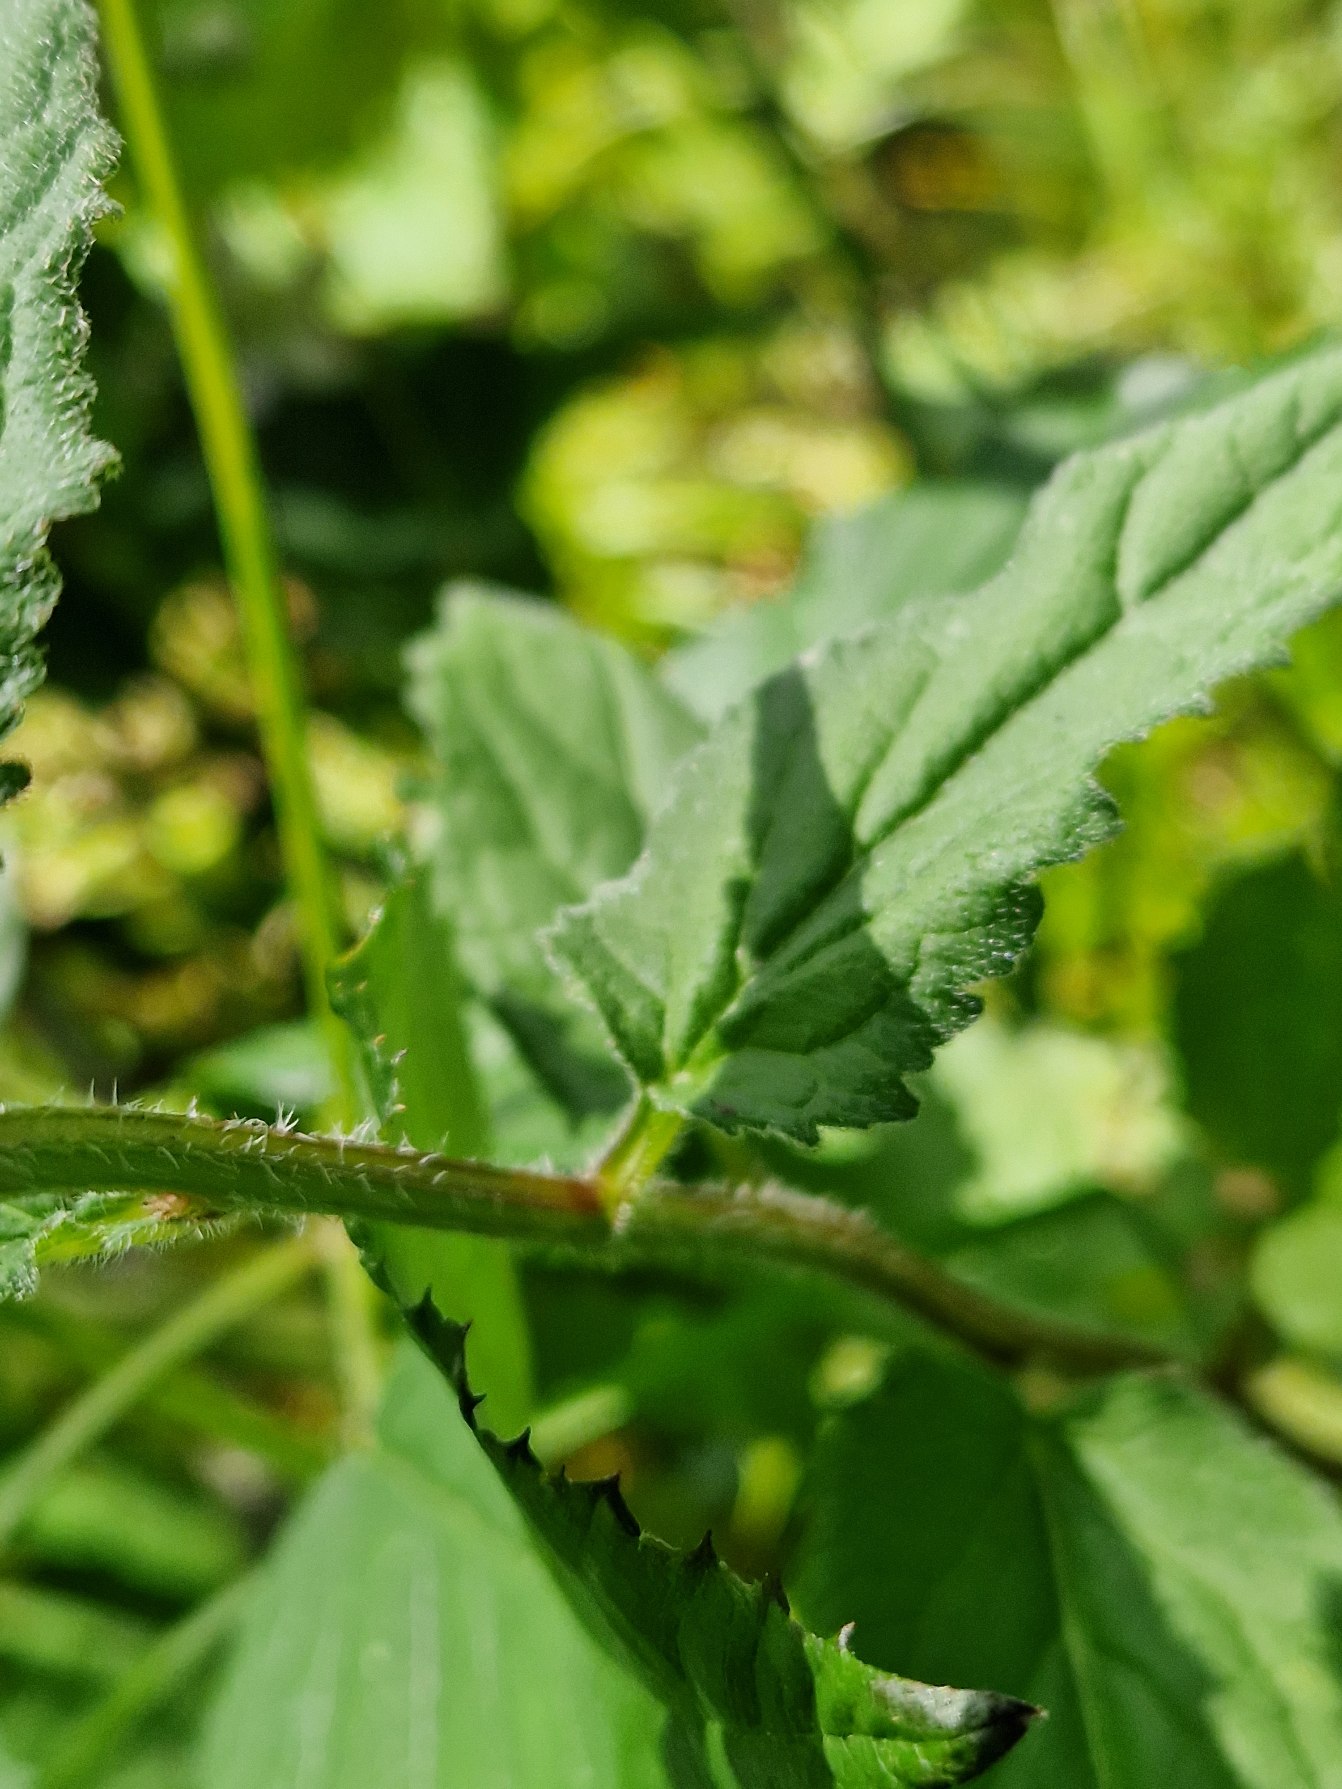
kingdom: Plantae
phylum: Tracheophyta
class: Magnoliopsida
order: Asterales
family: Campanulaceae
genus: Campanula
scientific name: Campanula trachelium
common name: Nælde-klokke
